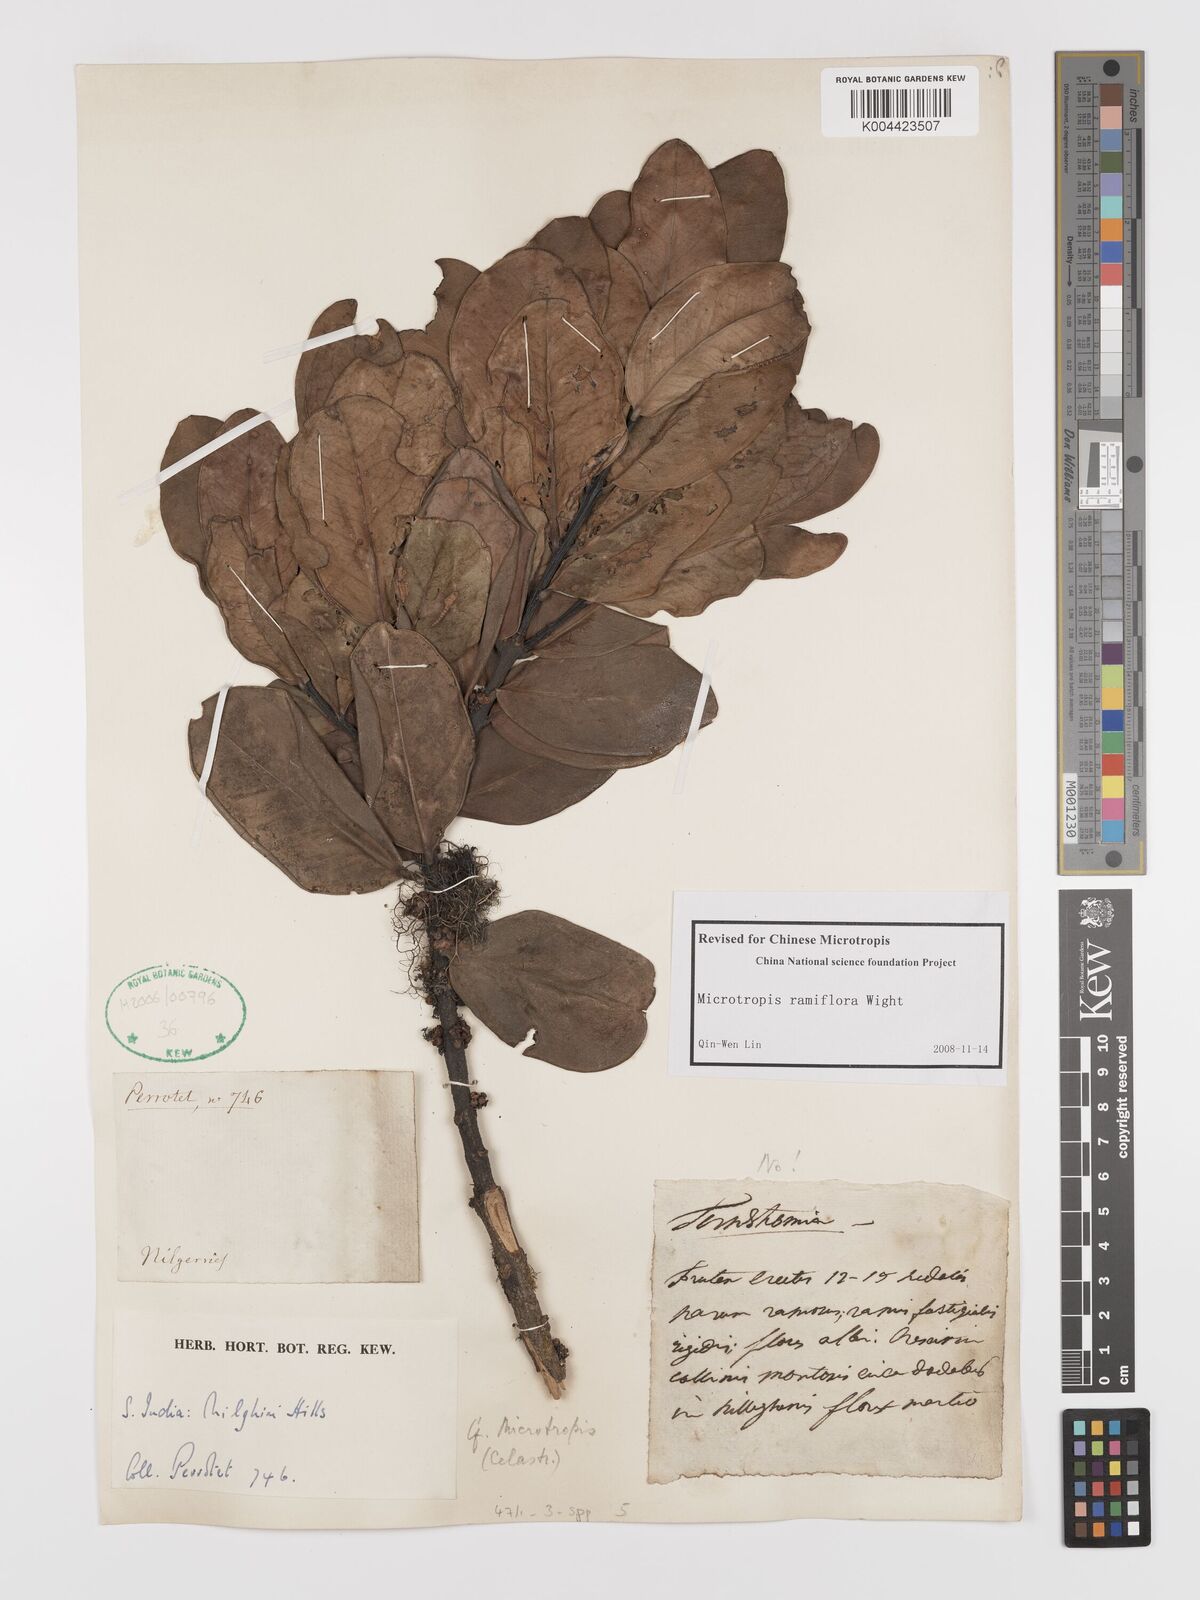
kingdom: Plantae
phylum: Tracheophyta
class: Magnoliopsida
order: Celastrales
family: Celastraceae
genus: Microtropis
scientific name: Microtropis ramiflora
